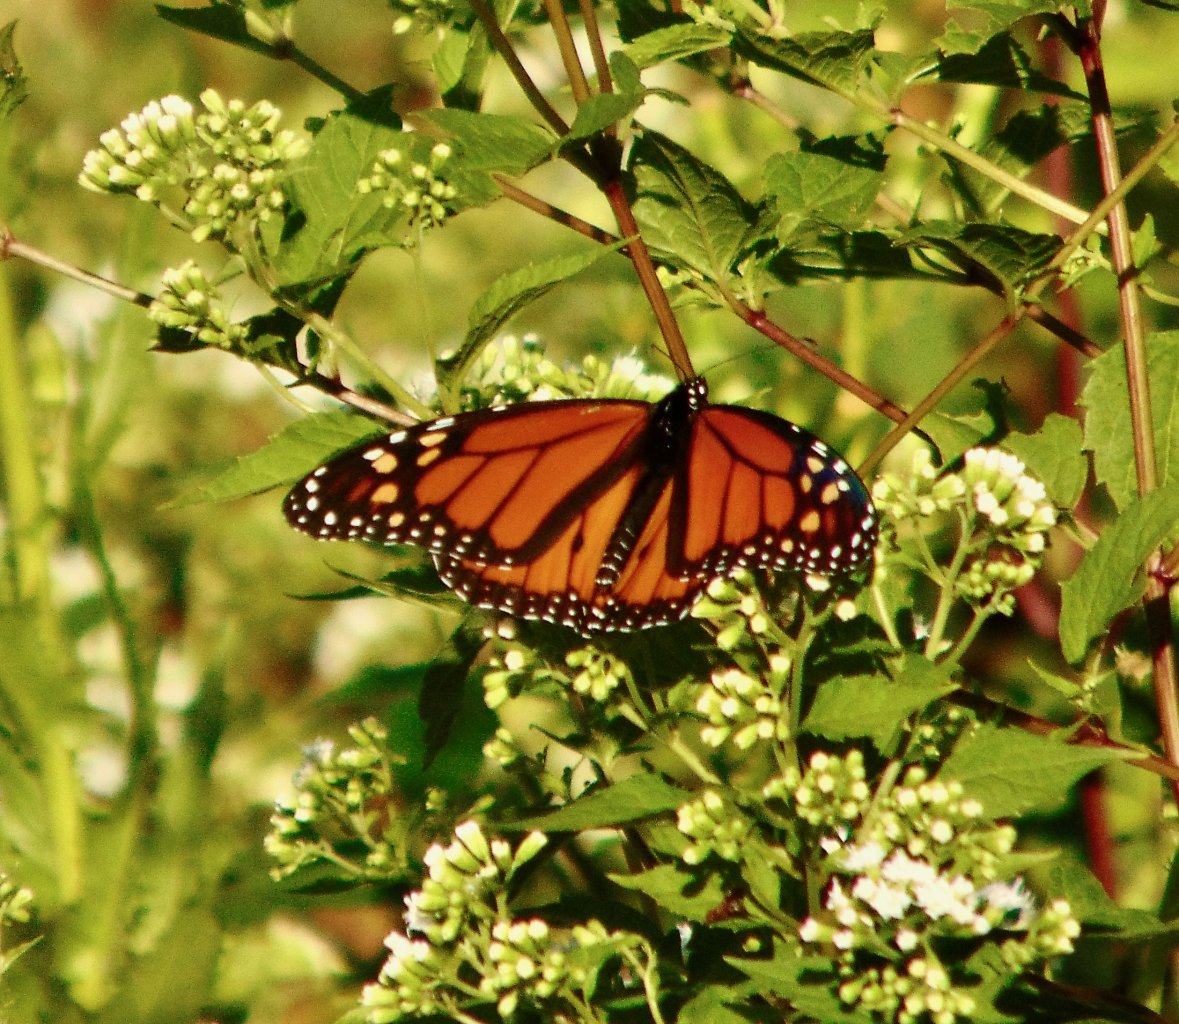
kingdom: Animalia
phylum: Arthropoda
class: Insecta
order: Lepidoptera
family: Nymphalidae
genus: Danaus
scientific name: Danaus plexippus
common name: Monarch
